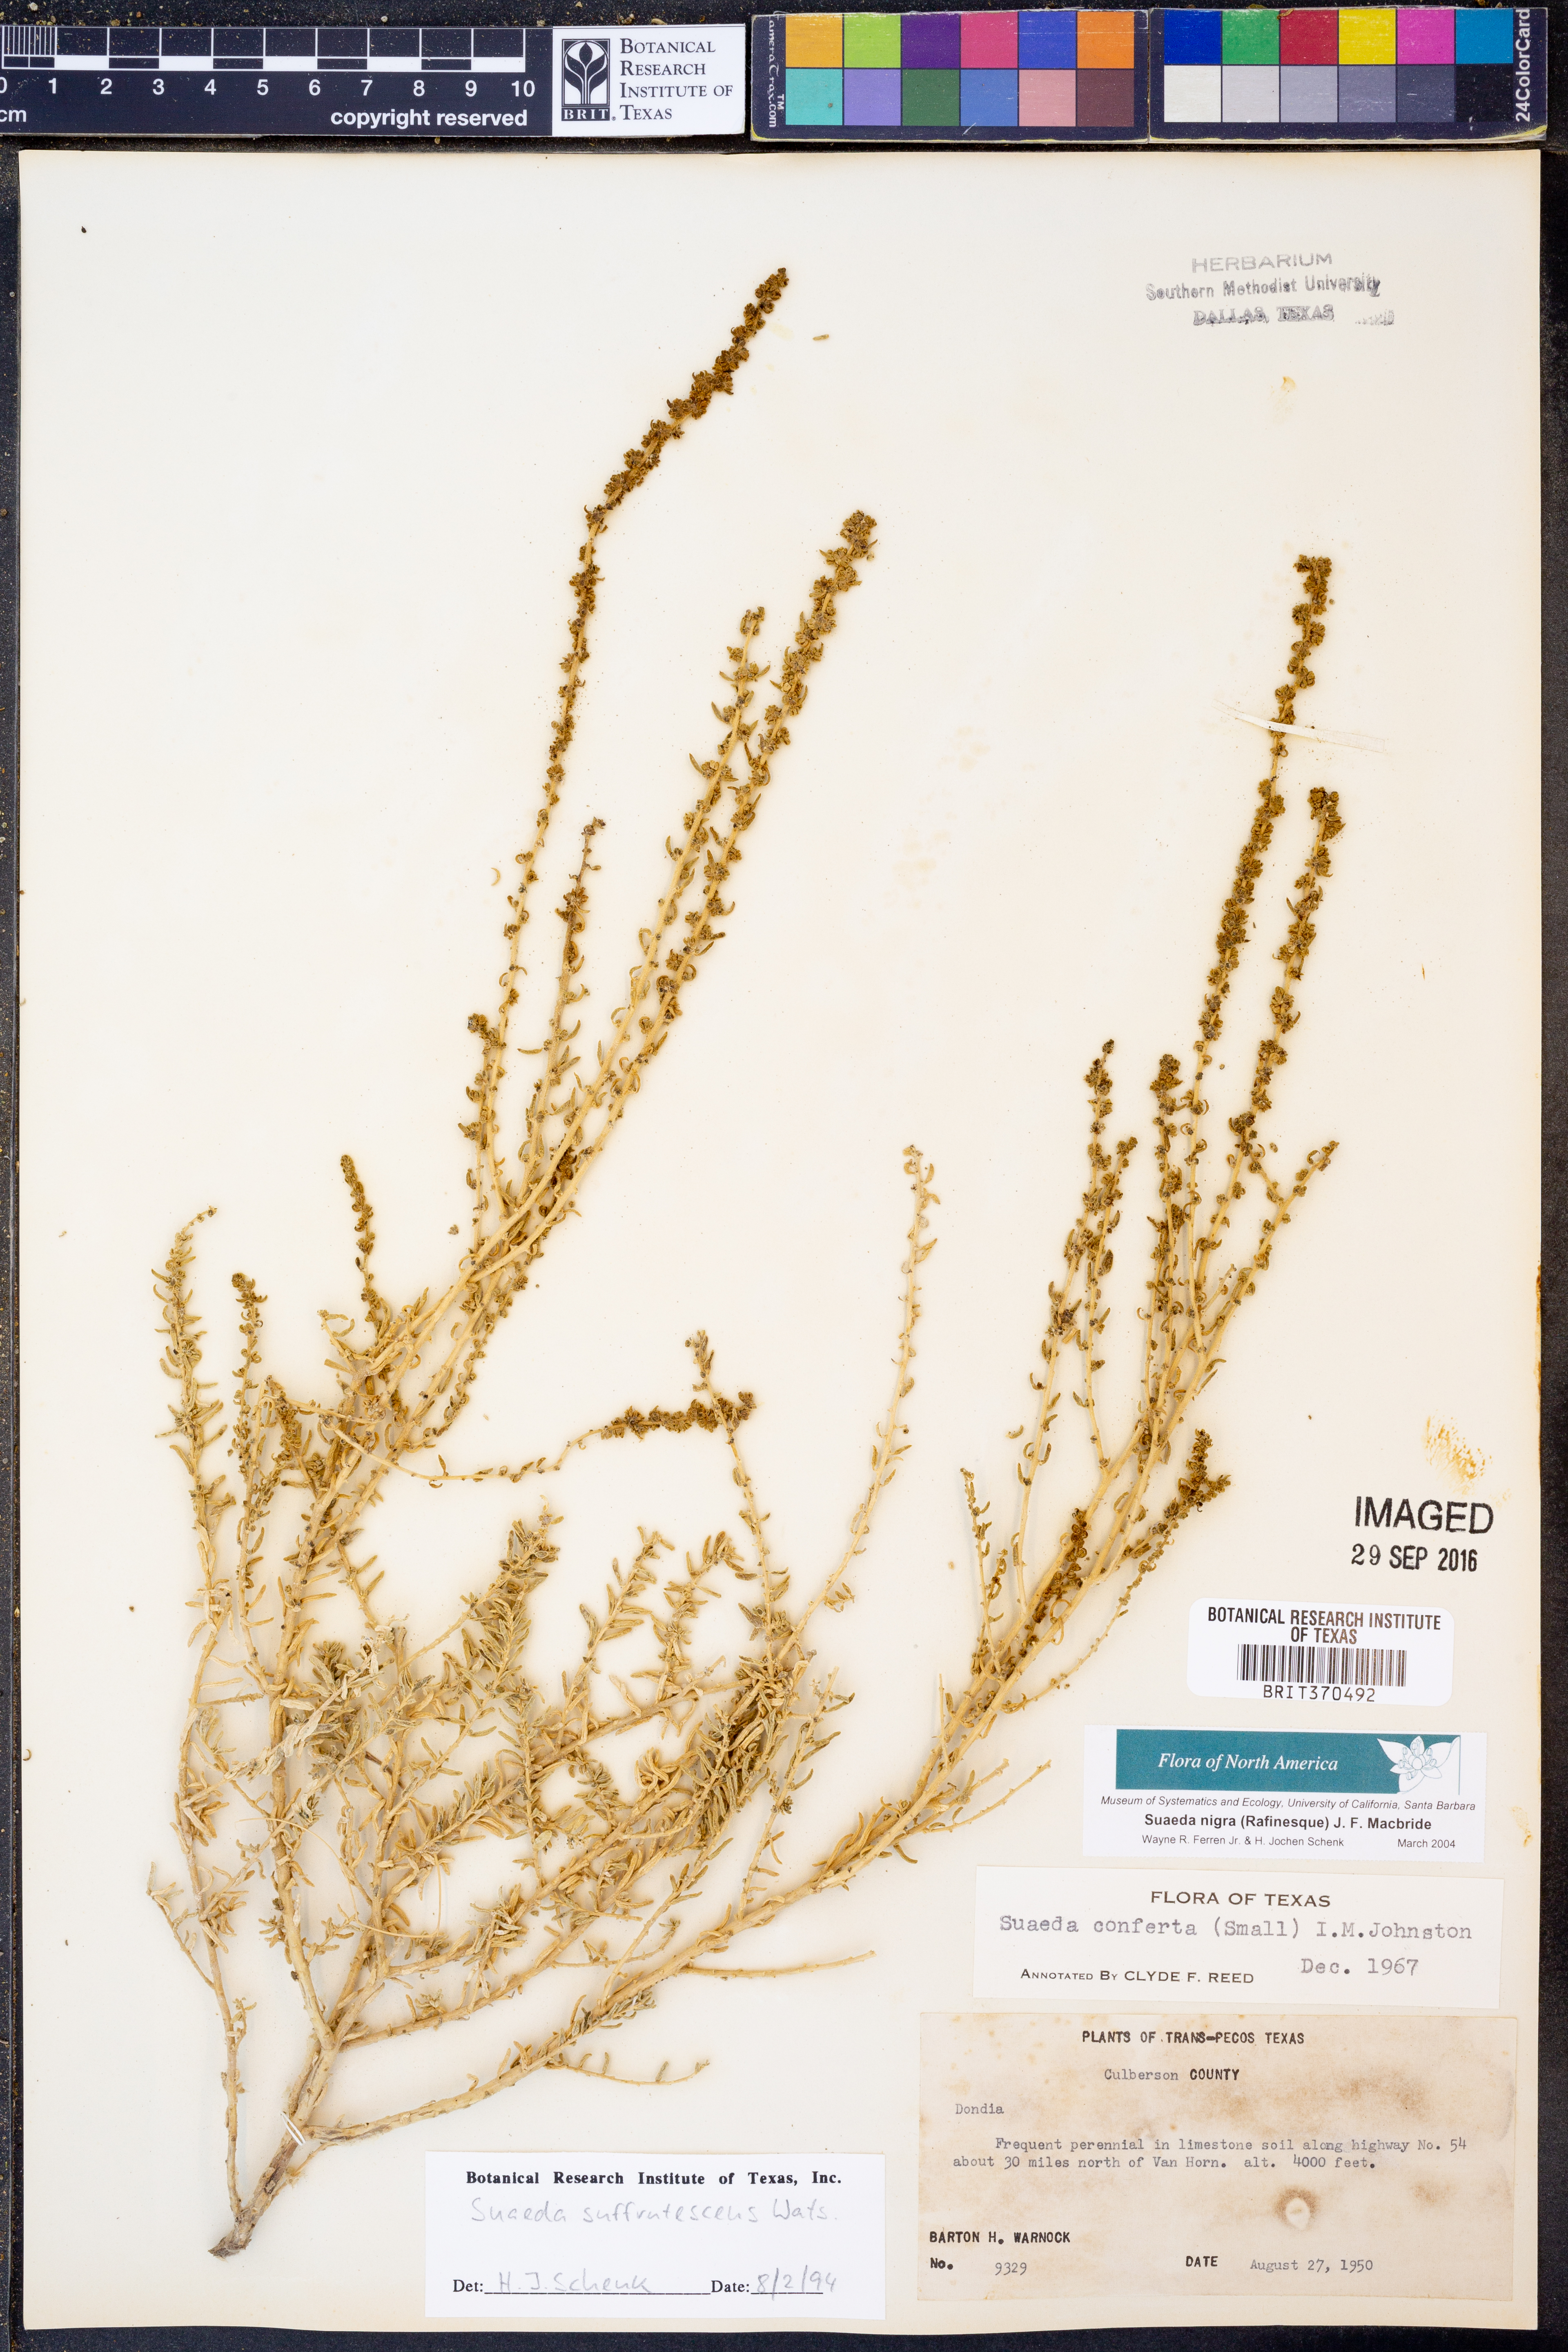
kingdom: Plantae
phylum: Tracheophyta
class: Magnoliopsida
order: Caryophyllales
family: Amaranthaceae
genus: Suaeda
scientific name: Suaeda nigra
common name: Bush seepweed
